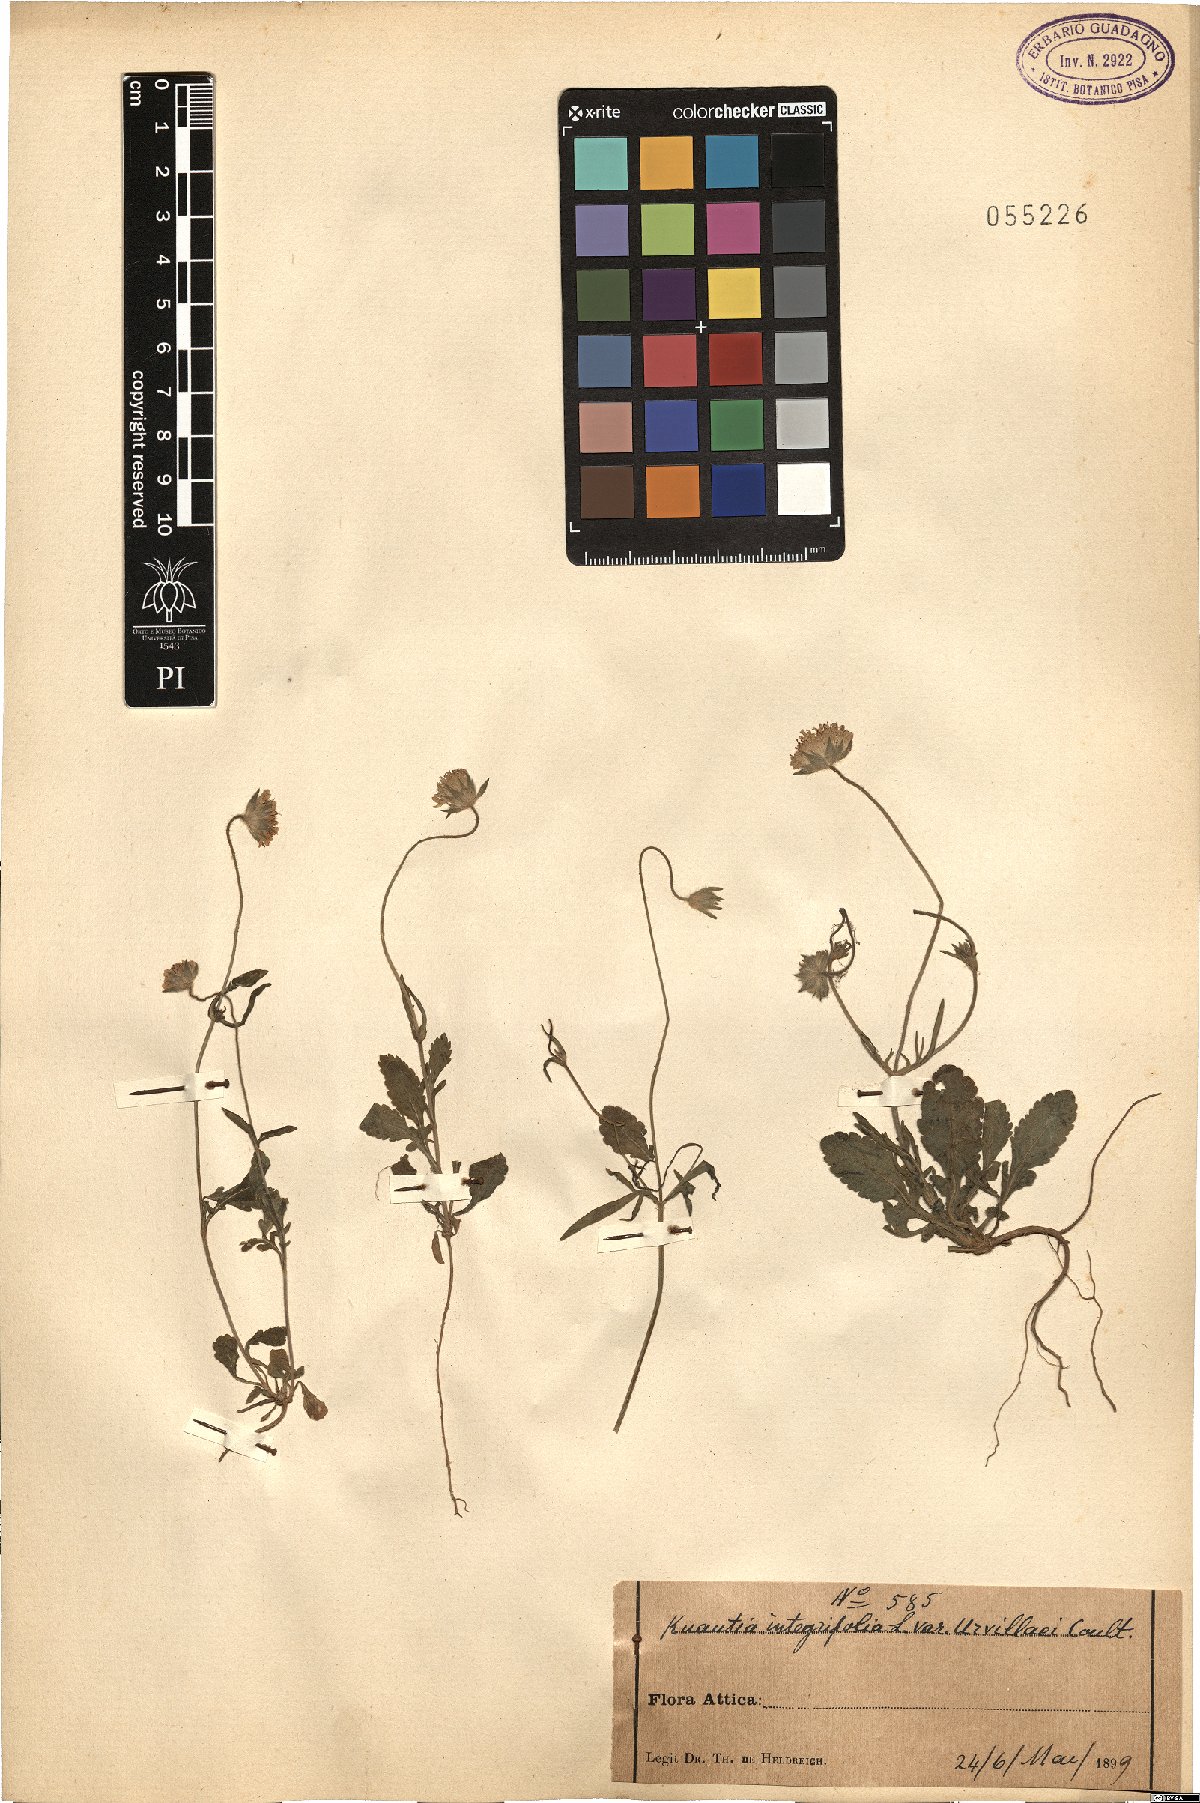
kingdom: Plantae
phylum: Tracheophyta
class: Magnoliopsida
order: Dipsacales
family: Caprifoliaceae
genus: Knautia
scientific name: Knautia integrifolia
